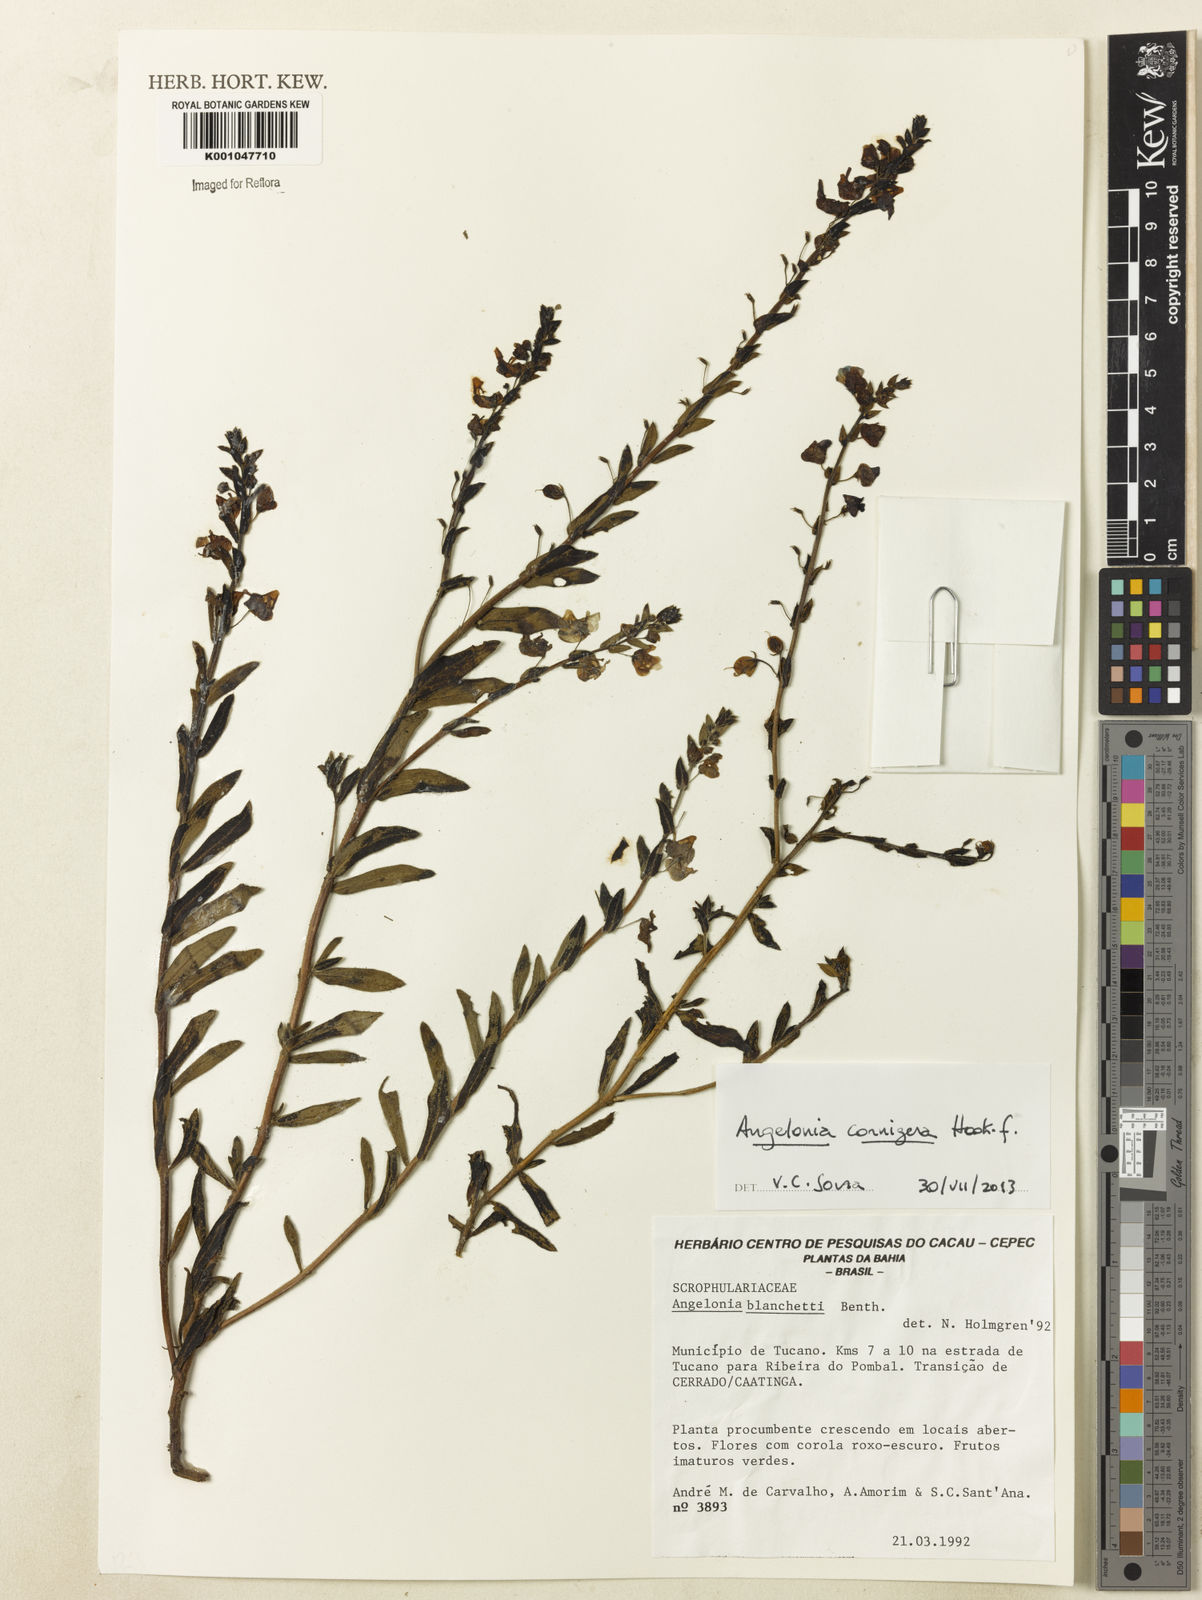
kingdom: Plantae
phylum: Tracheophyta
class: Magnoliopsida
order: Lamiales
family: Plantaginaceae
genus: Angelonia
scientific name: Angelonia cornigera
